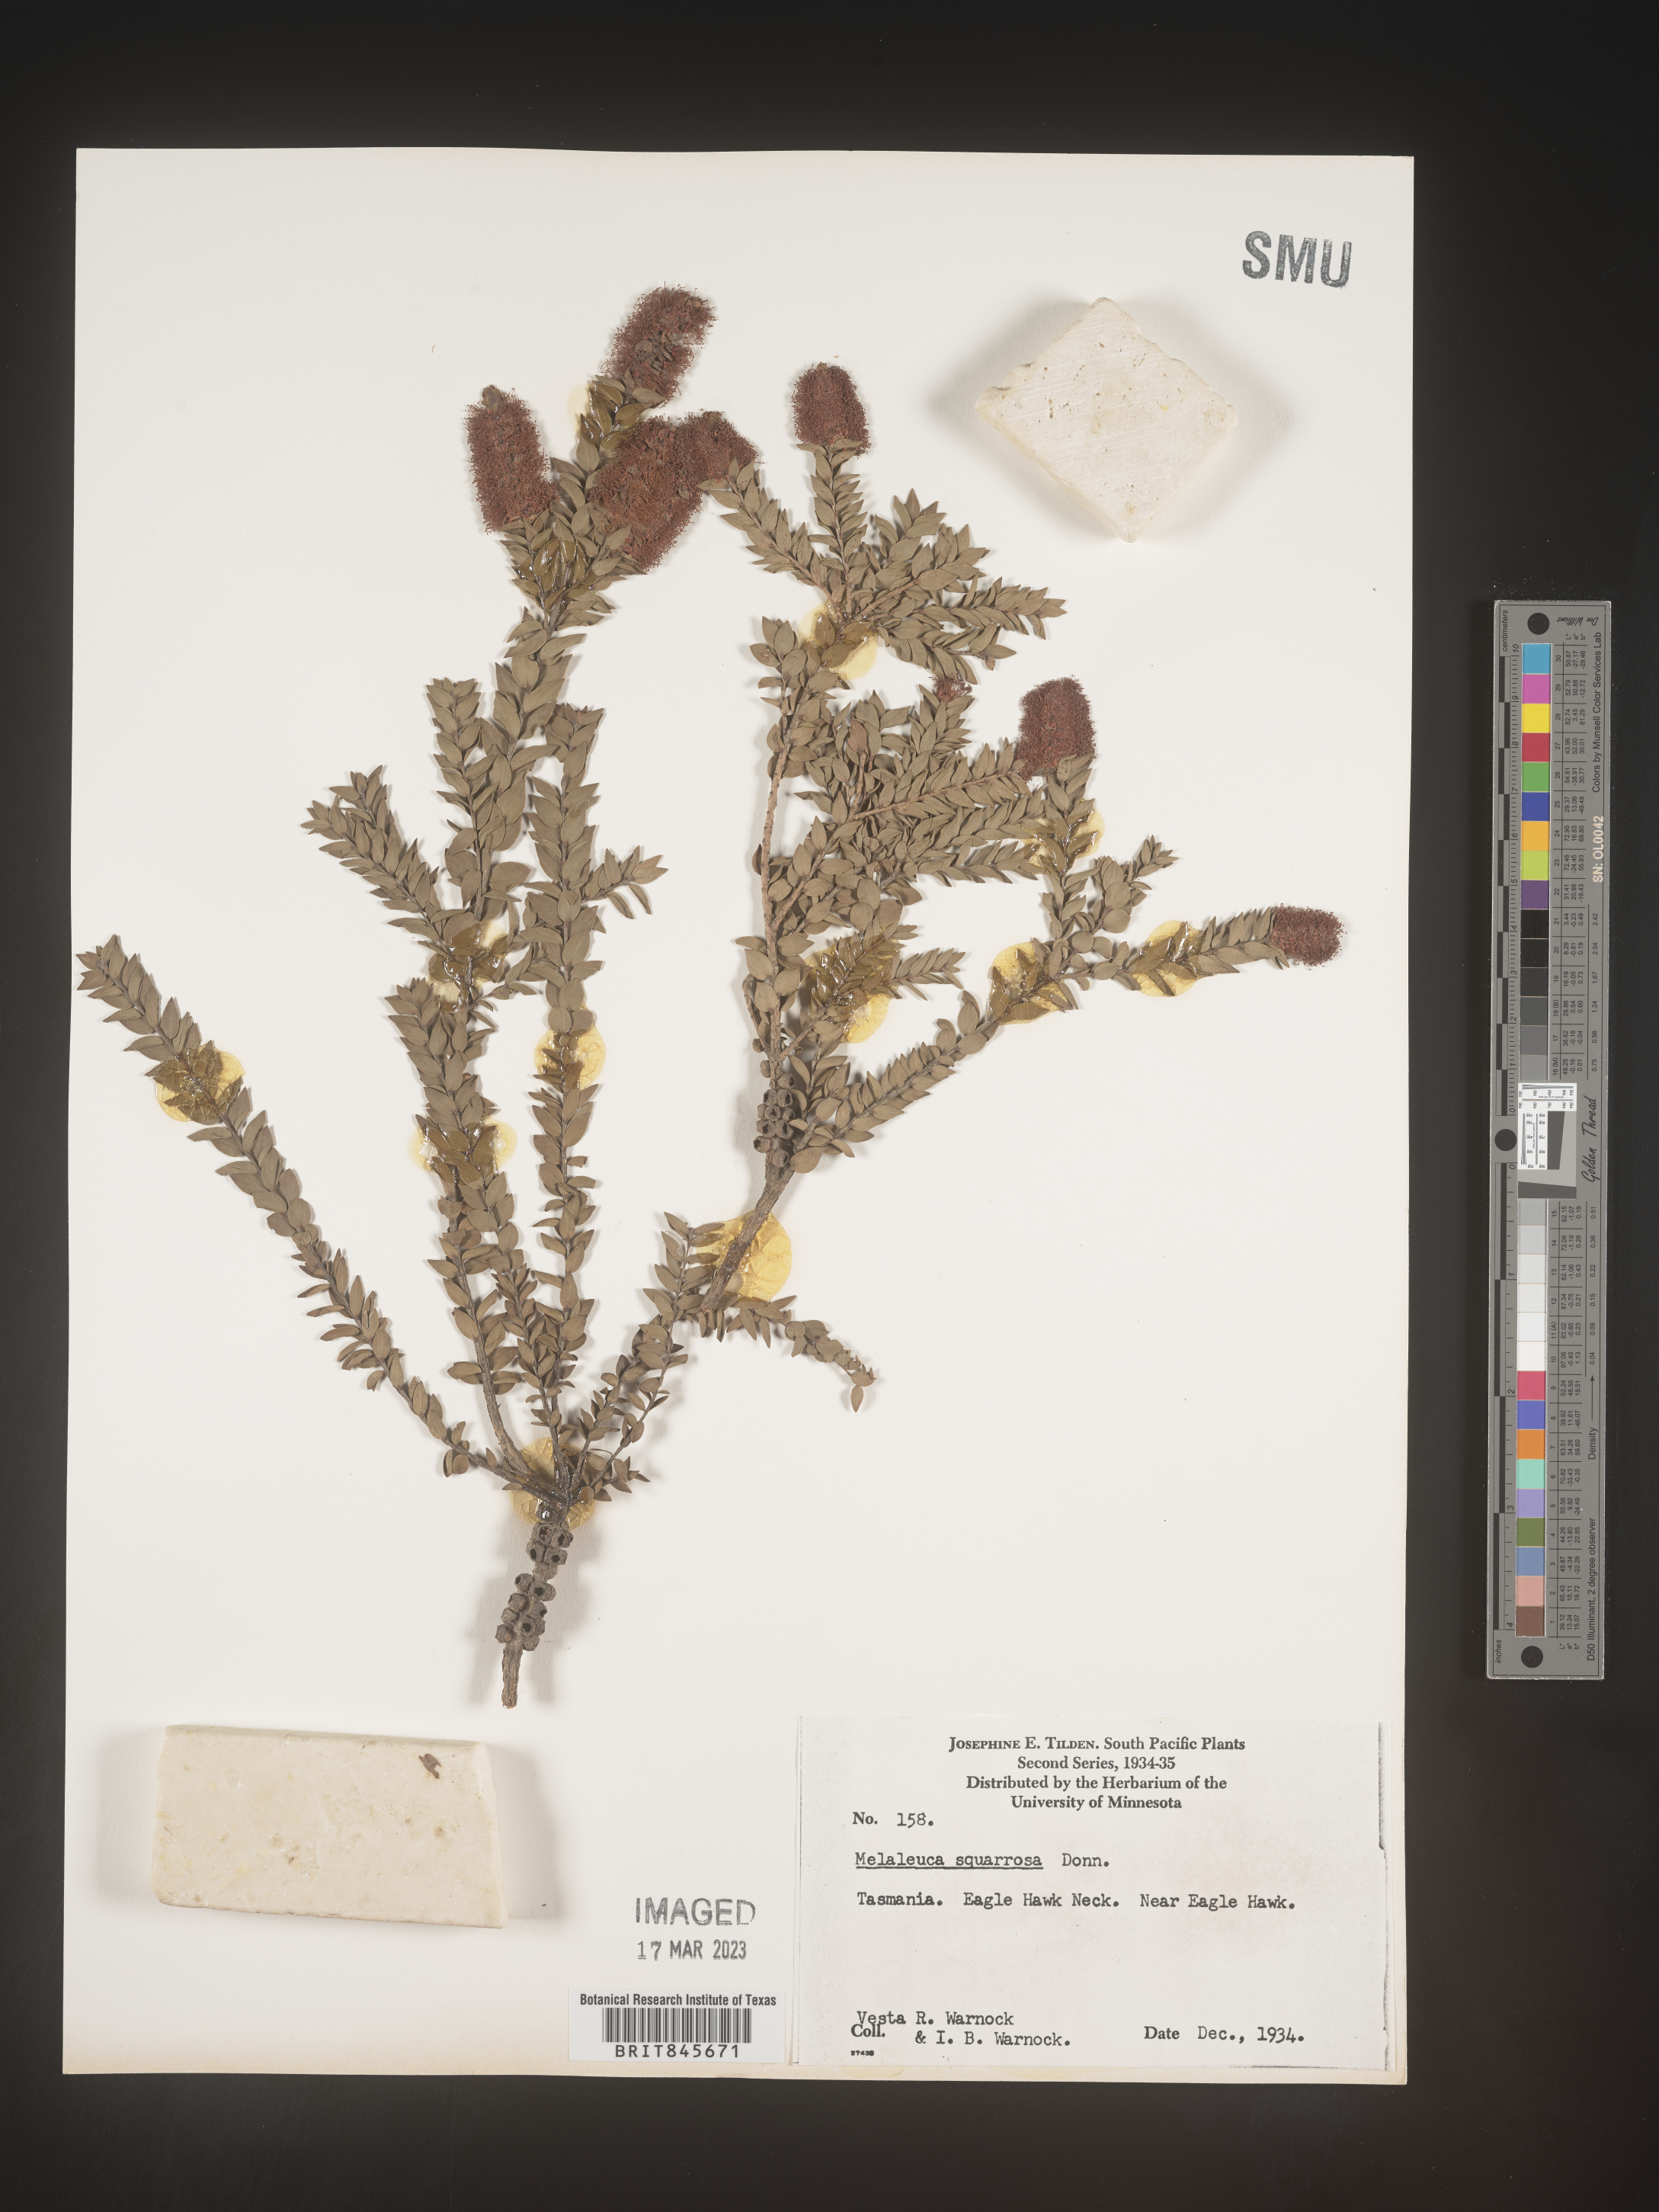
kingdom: Plantae
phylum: Tracheophyta
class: Magnoliopsida
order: Myrtales
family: Myrtaceae
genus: Melaleuca
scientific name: Melaleuca
